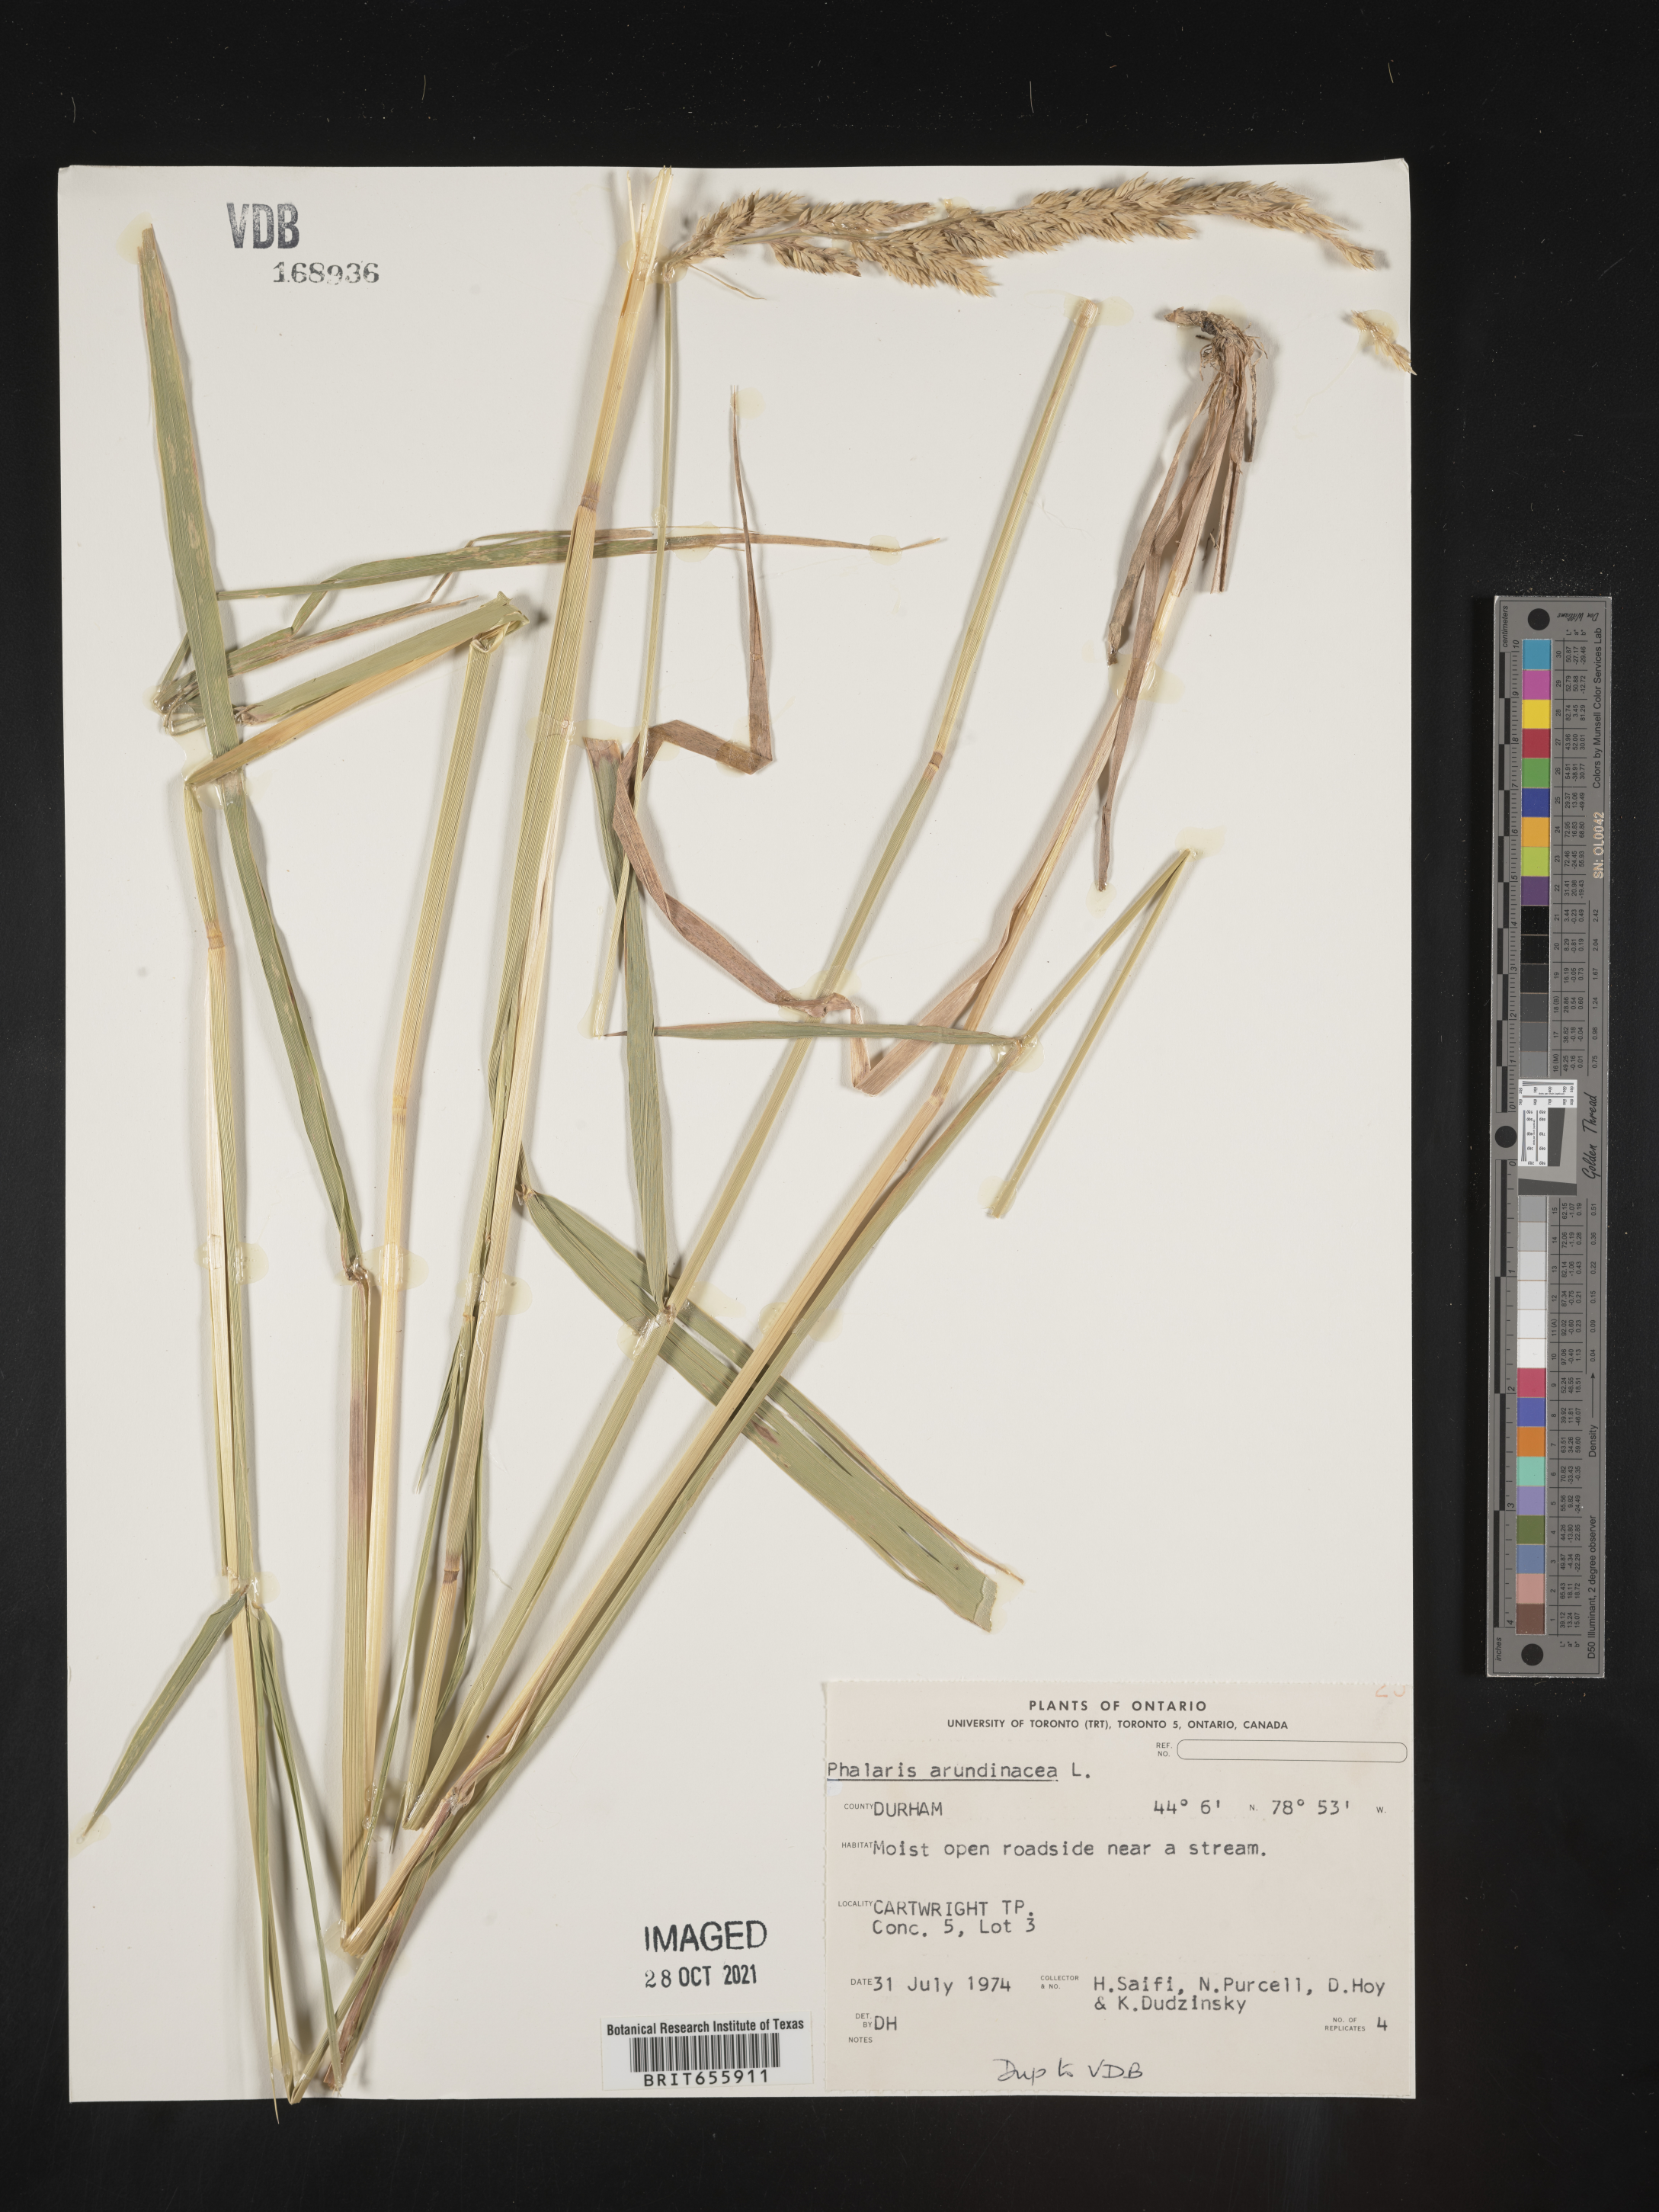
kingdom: Plantae
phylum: Tracheophyta
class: Liliopsida
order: Poales
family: Poaceae
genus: Phalaris
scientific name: Phalaris
